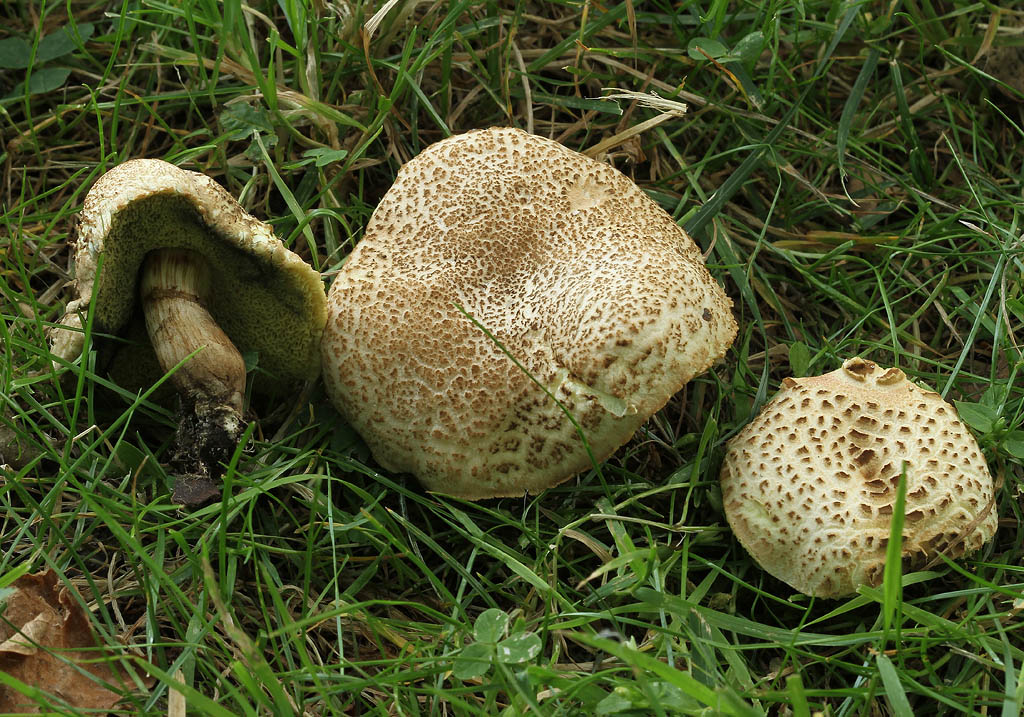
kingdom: Fungi
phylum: Basidiomycota
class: Agaricomycetes
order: Boletales
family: Boletaceae
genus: Xerocomellus
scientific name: Xerocomellus porosporus
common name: hvidsprukken rørhat
